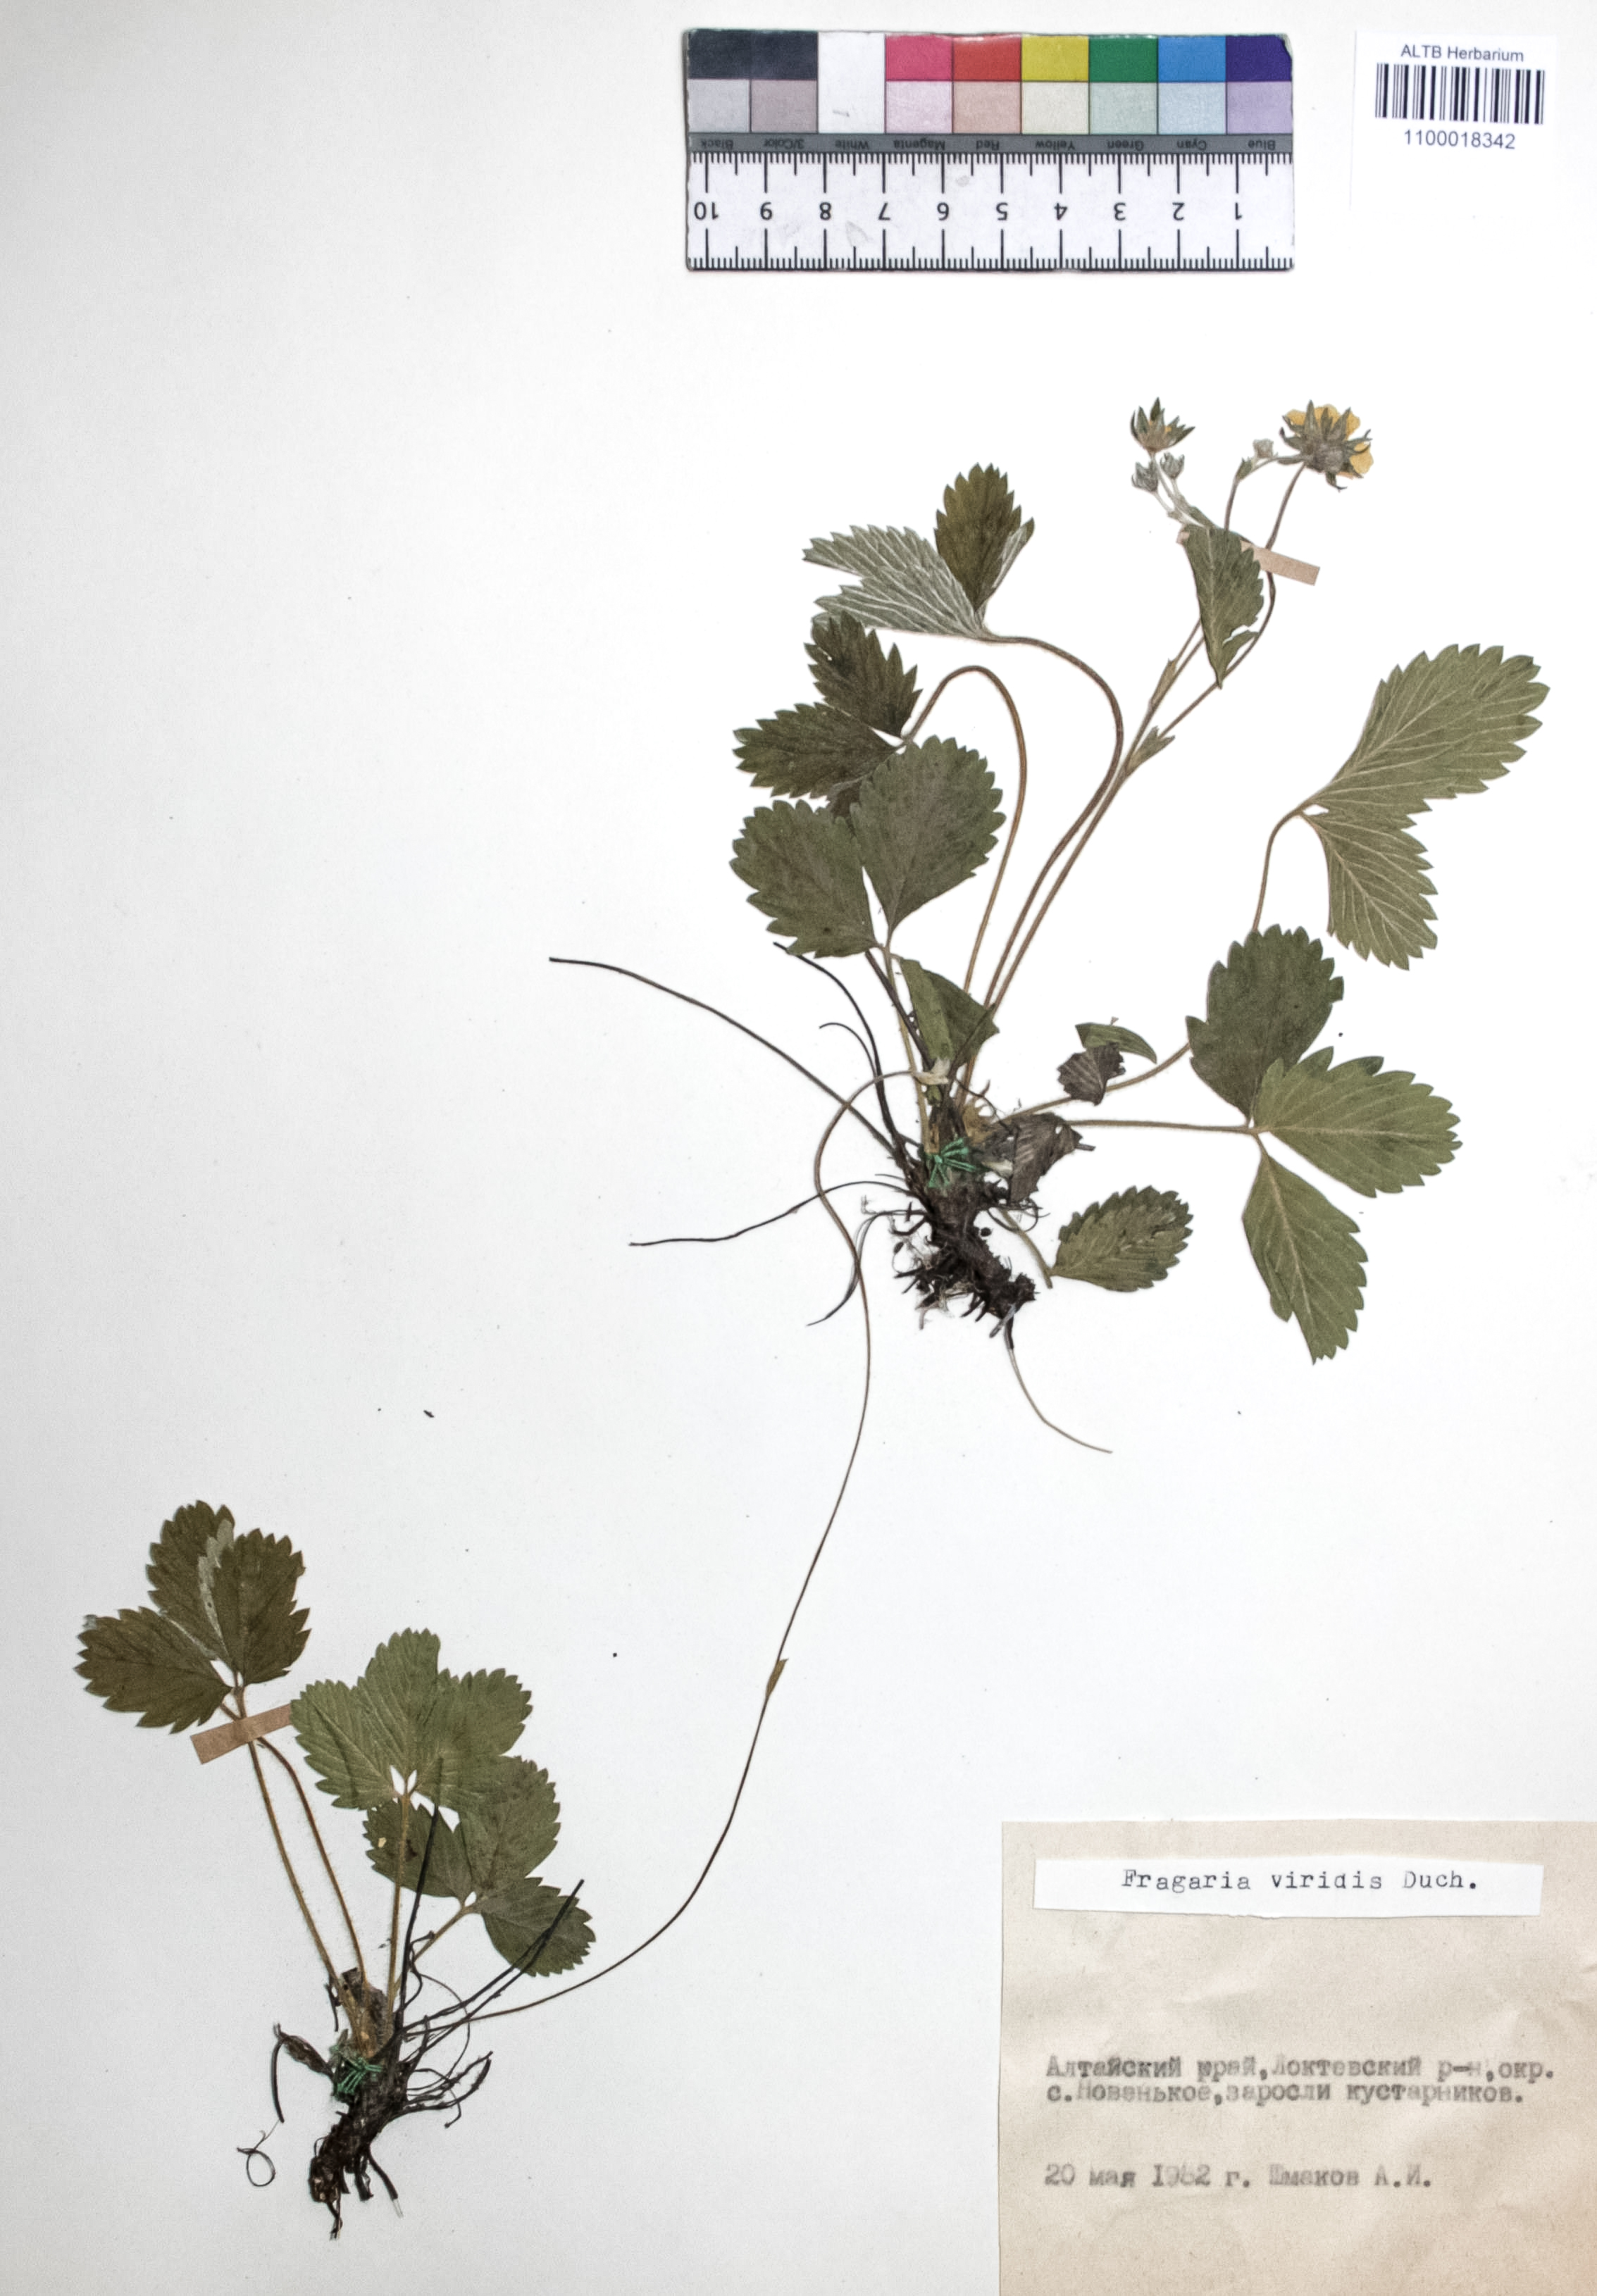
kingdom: Plantae
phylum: Tracheophyta
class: Magnoliopsida
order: Rosales
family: Rosaceae
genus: Fragaria
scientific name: Fragaria viridis
